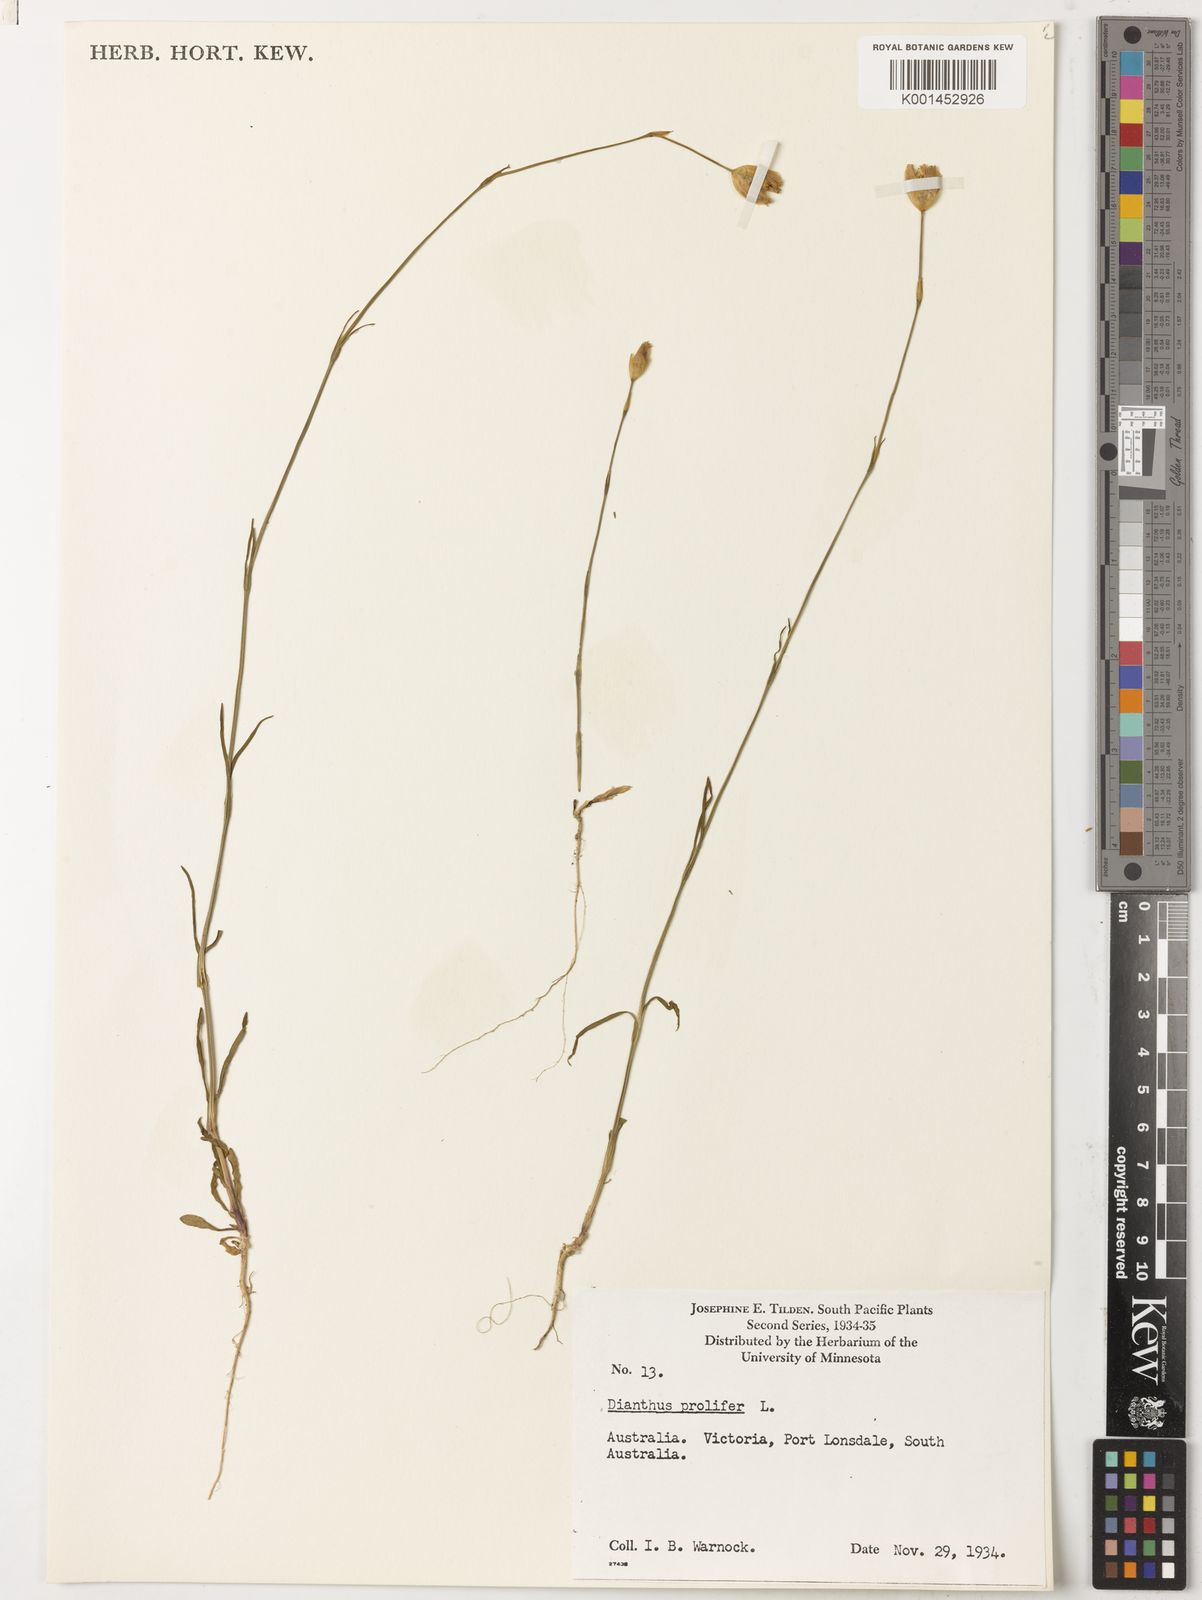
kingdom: Plantae
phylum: Tracheophyta
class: Magnoliopsida
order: Caryophyllales
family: Caryophyllaceae
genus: Petrorhagia
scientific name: Petrorhagia prolifera
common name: Proliferous pink
